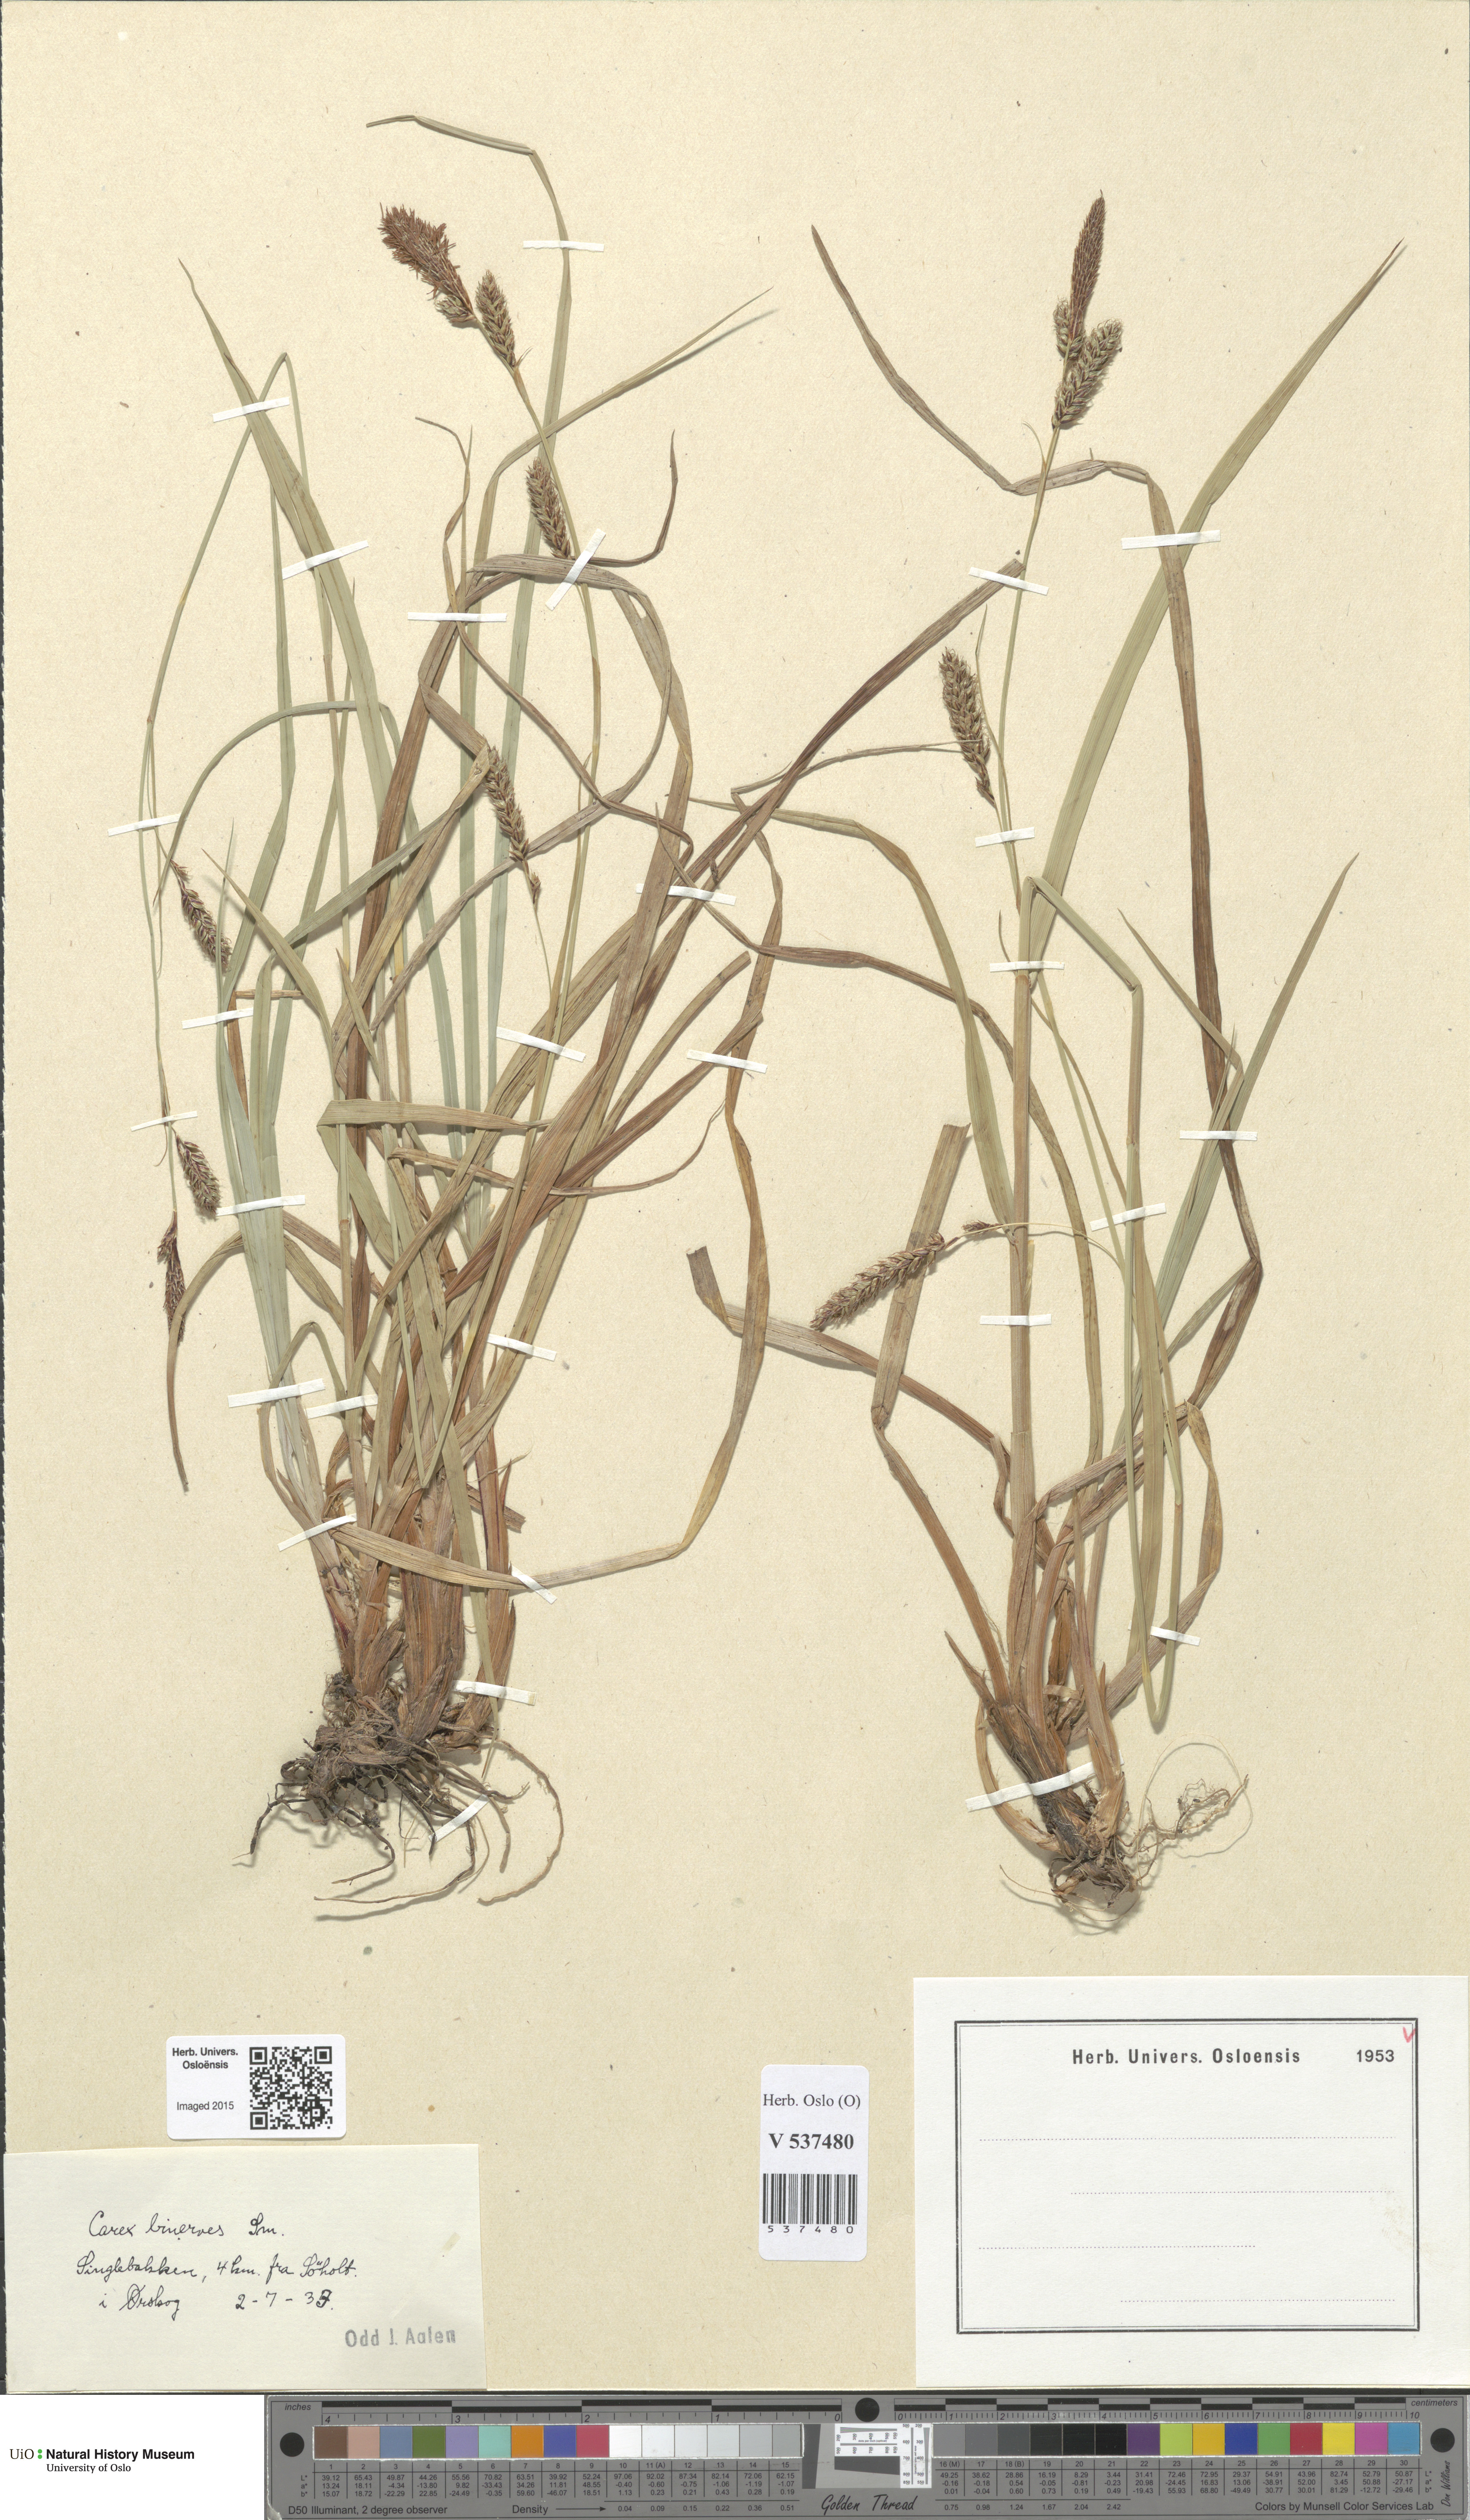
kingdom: Plantae
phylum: Tracheophyta
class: Liliopsida
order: Poales
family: Cyperaceae
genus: Carex
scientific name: Carex binervis
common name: Green-ribbed sedge
